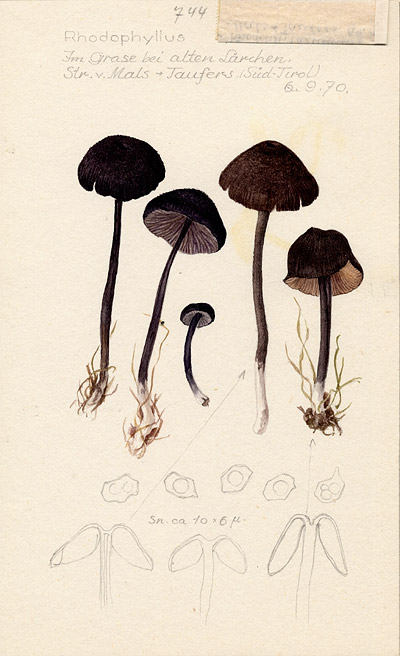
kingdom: Fungi
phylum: Basidiomycota
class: Agaricomycetes
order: Agaricales
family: Entolomataceae
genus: Entoloma
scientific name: Entoloma
